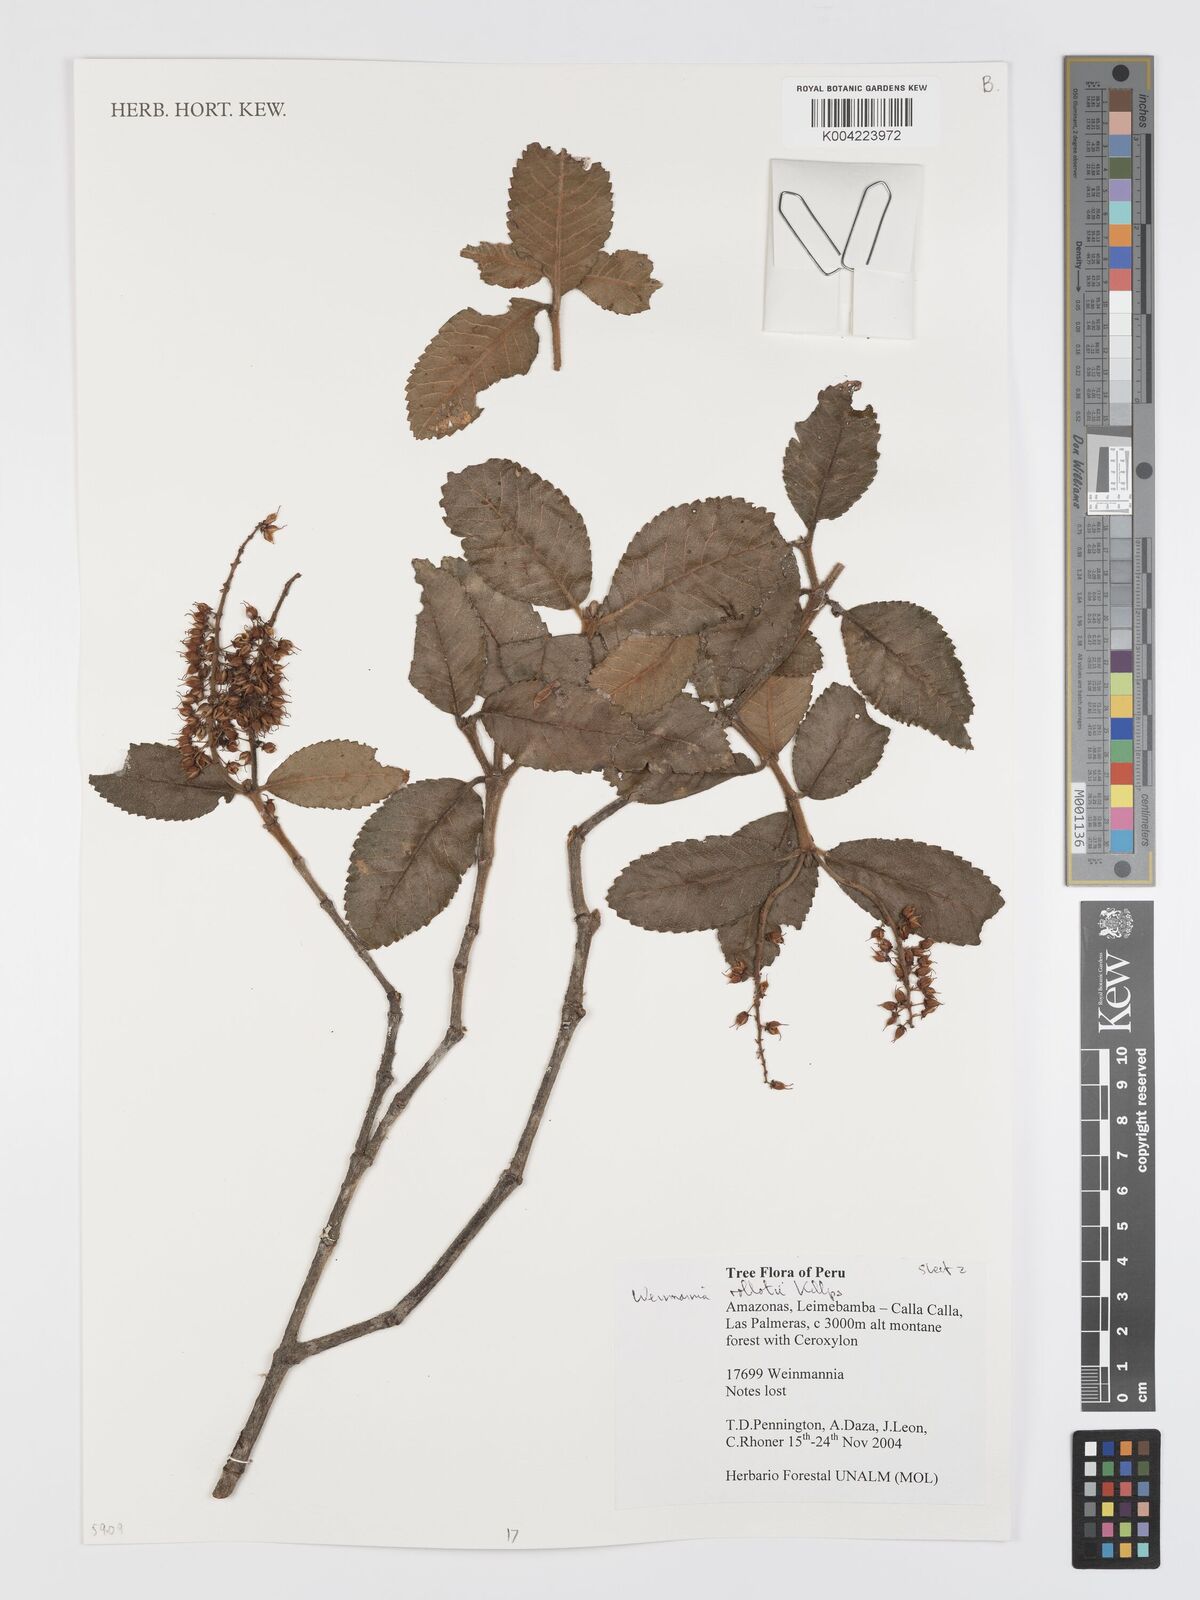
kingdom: Plantae
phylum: Tracheophyta
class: Magnoliopsida
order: Oxalidales
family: Cunoniaceae
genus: Weinmannia
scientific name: Weinmannia rollottii
